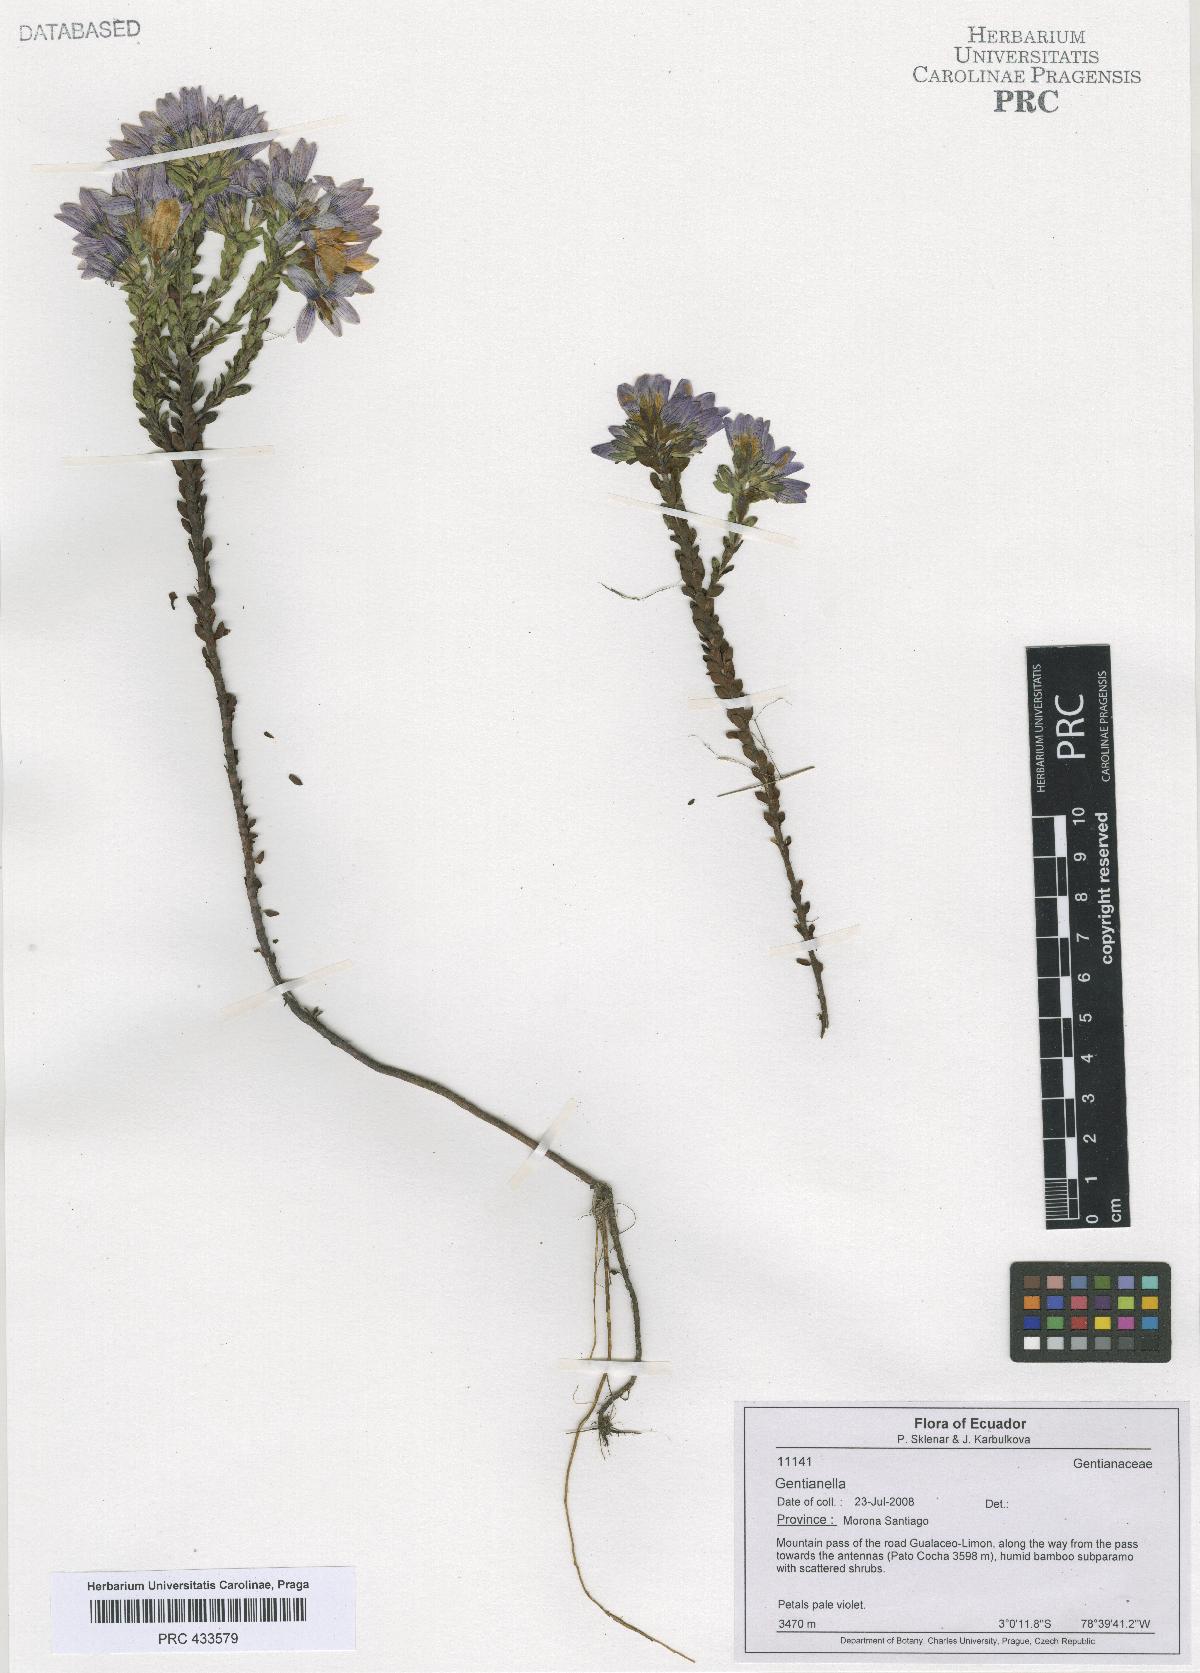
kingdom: Plantae
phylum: Tracheophyta
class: Magnoliopsida
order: Gentianales
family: Gentianaceae
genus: Gentianella
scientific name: Gentianella
